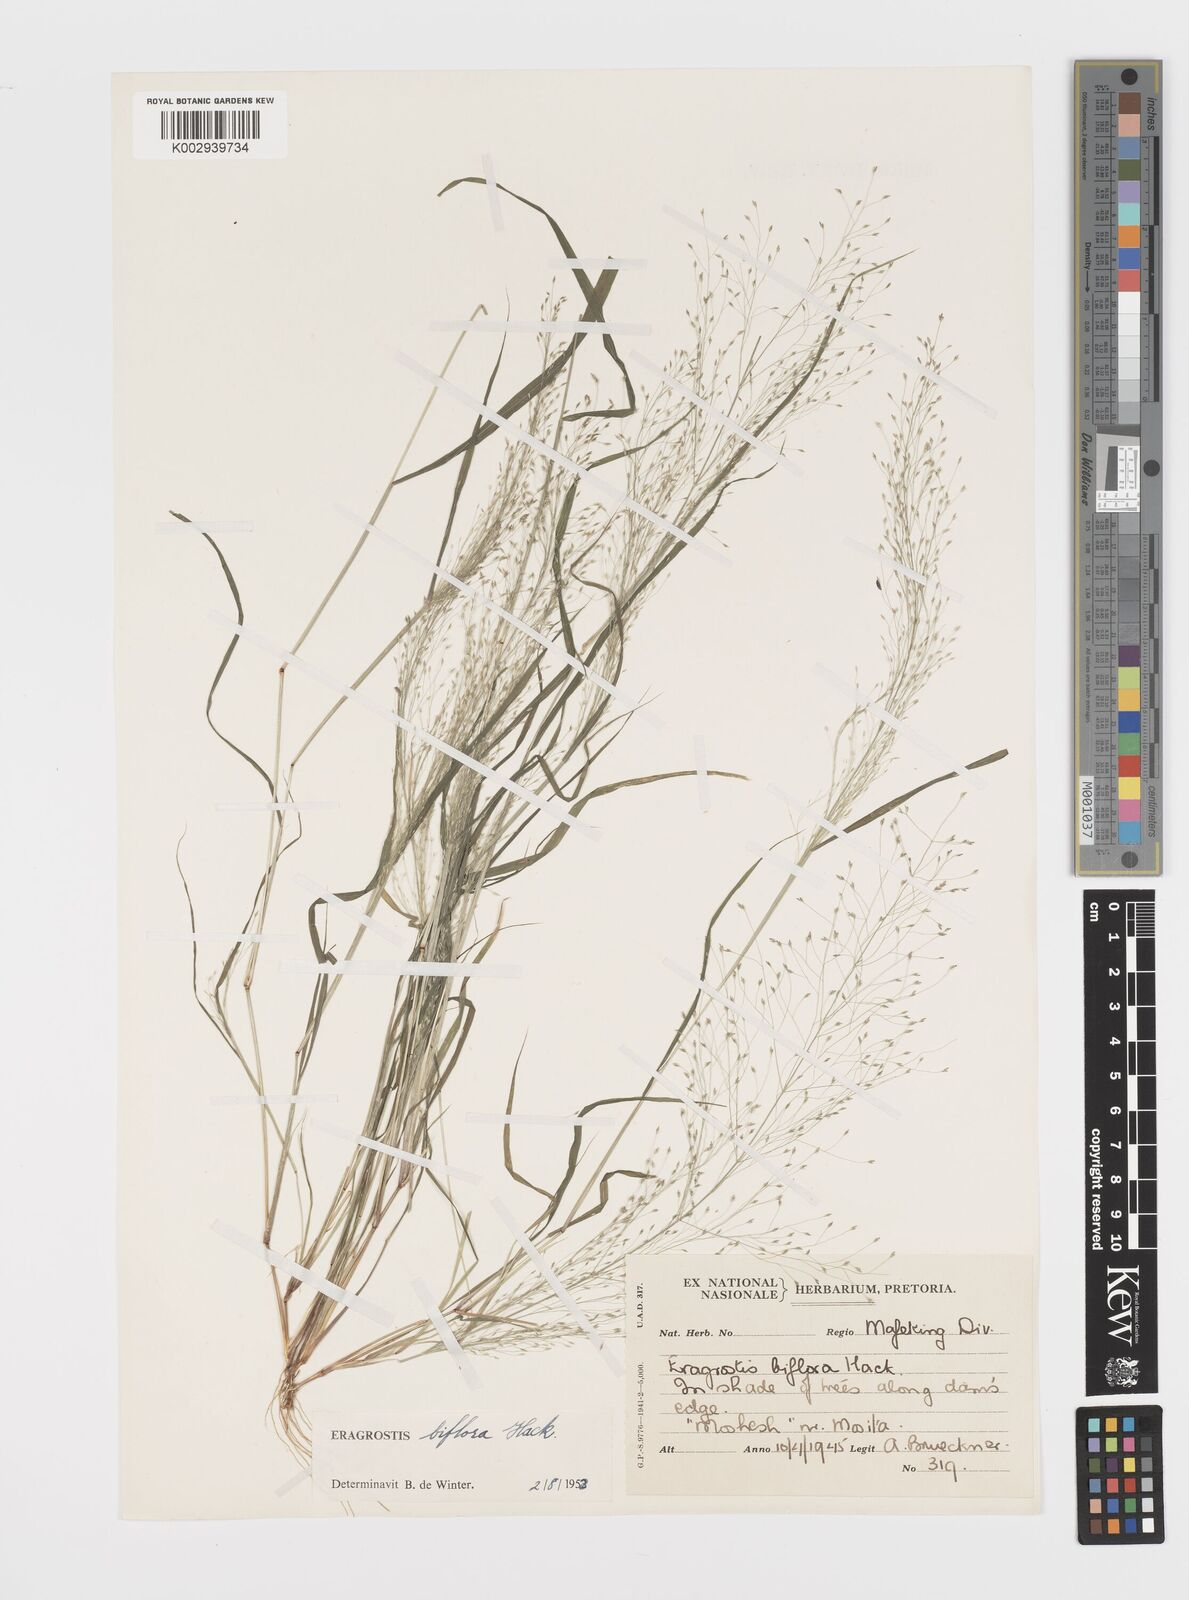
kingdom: Plantae
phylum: Tracheophyta
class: Liliopsida
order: Poales
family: Poaceae
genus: Eragrostis
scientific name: Eragrostis biflora
